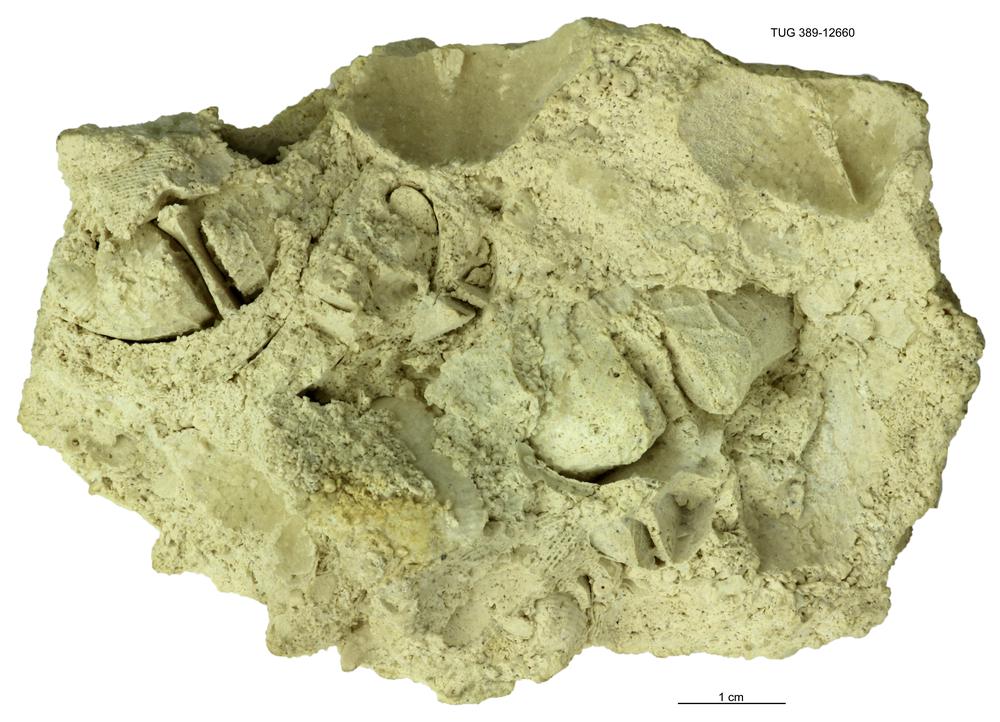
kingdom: Animalia
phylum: Brachiopoda
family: Strophomenidae
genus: Katastrophomena
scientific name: Katastrophomena Strophomena antiquata
